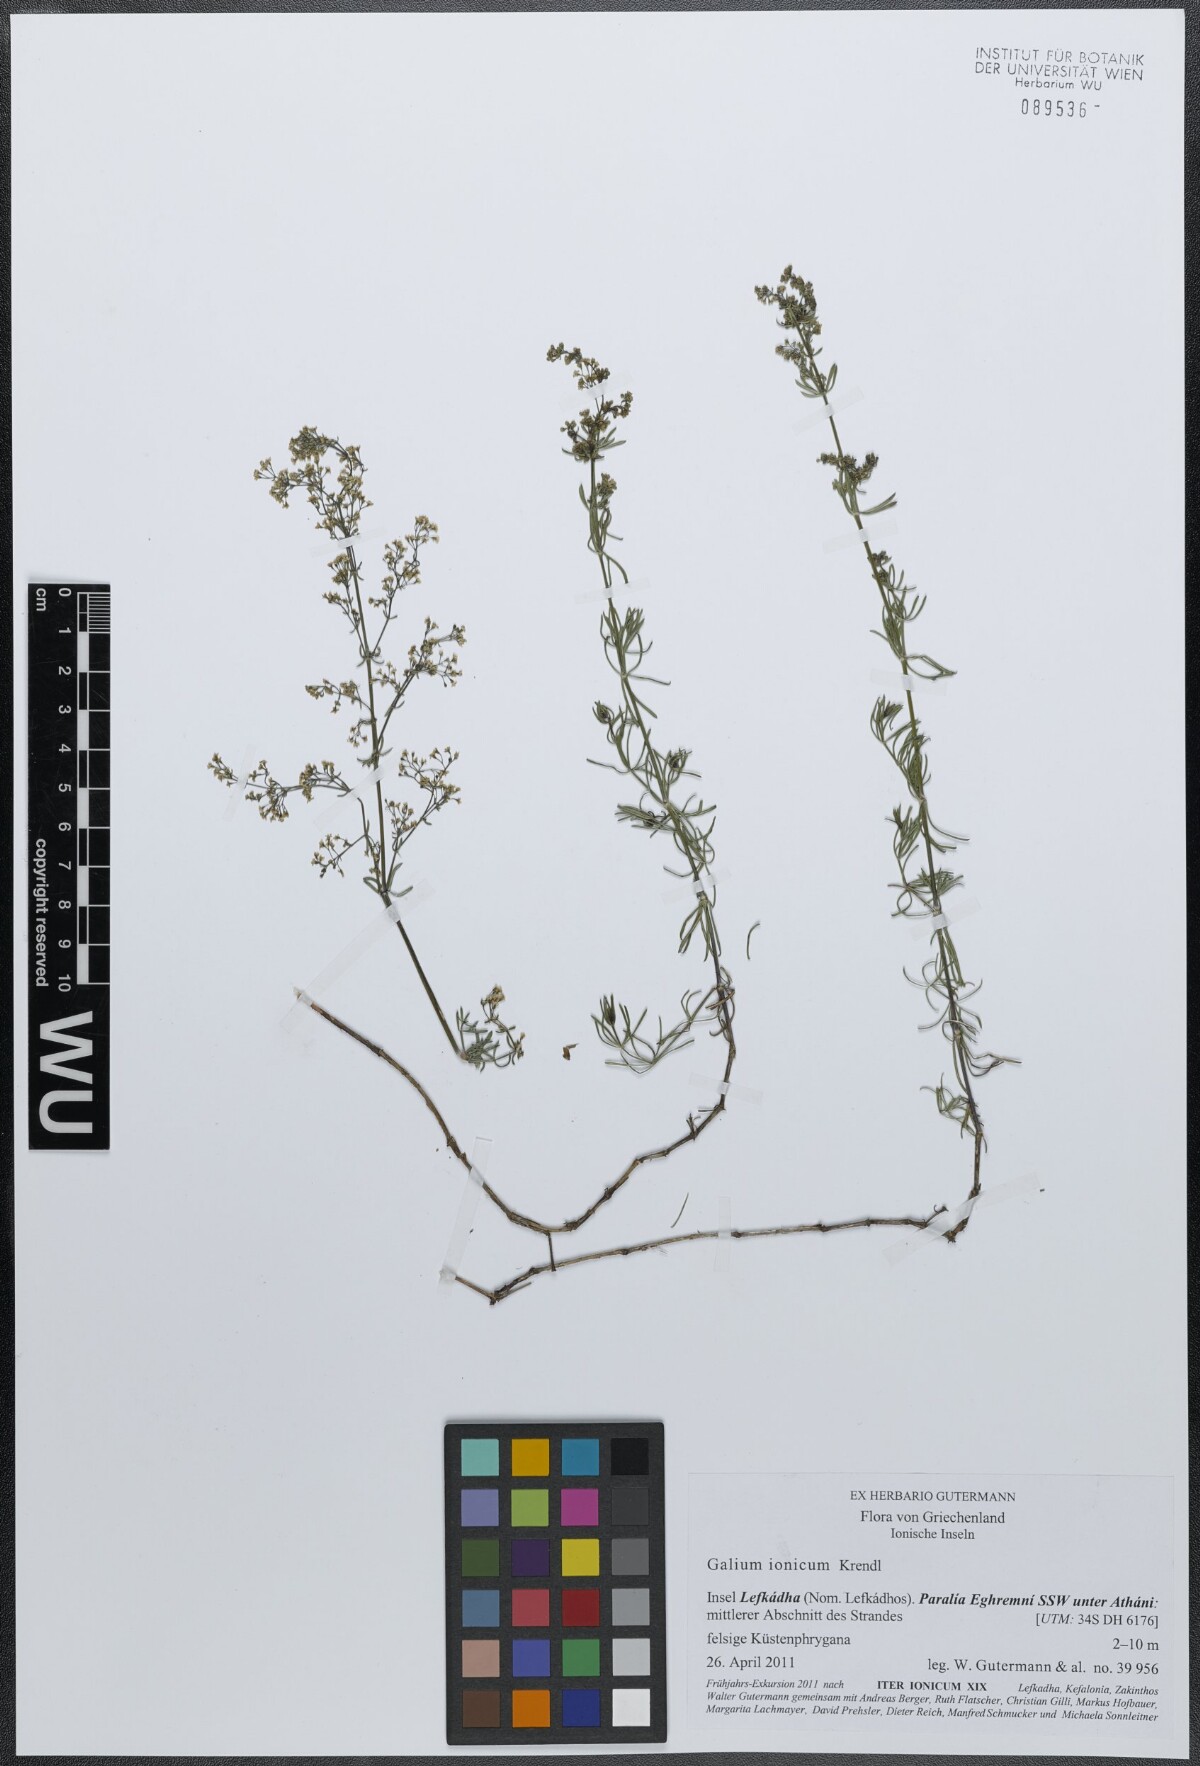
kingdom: Plantae
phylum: Tracheophyta
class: Magnoliopsida
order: Gentianales
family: Rubiaceae
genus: Galium
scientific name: Galium ionicum
